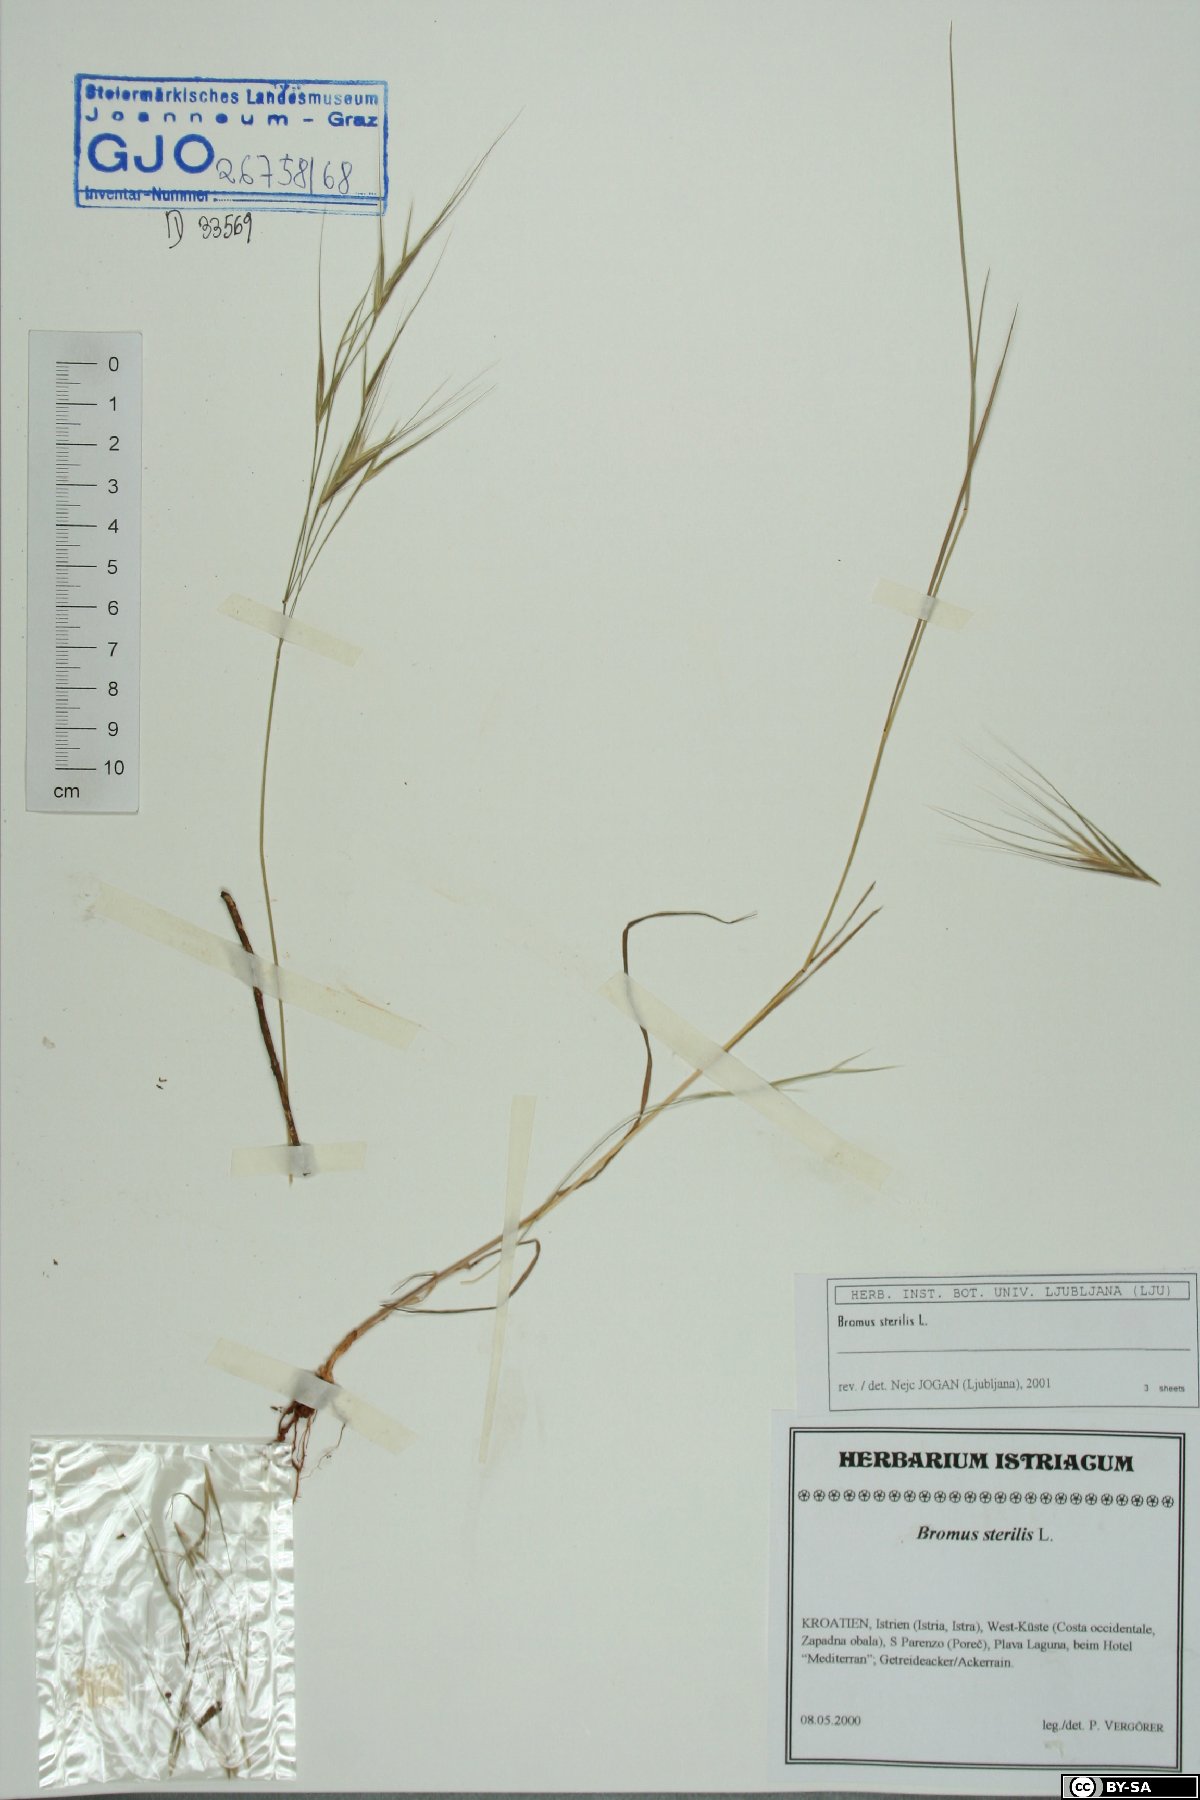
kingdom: Plantae
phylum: Tracheophyta
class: Liliopsida
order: Poales
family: Poaceae
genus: Bromus
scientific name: Bromus sterilis
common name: Poverty brome
